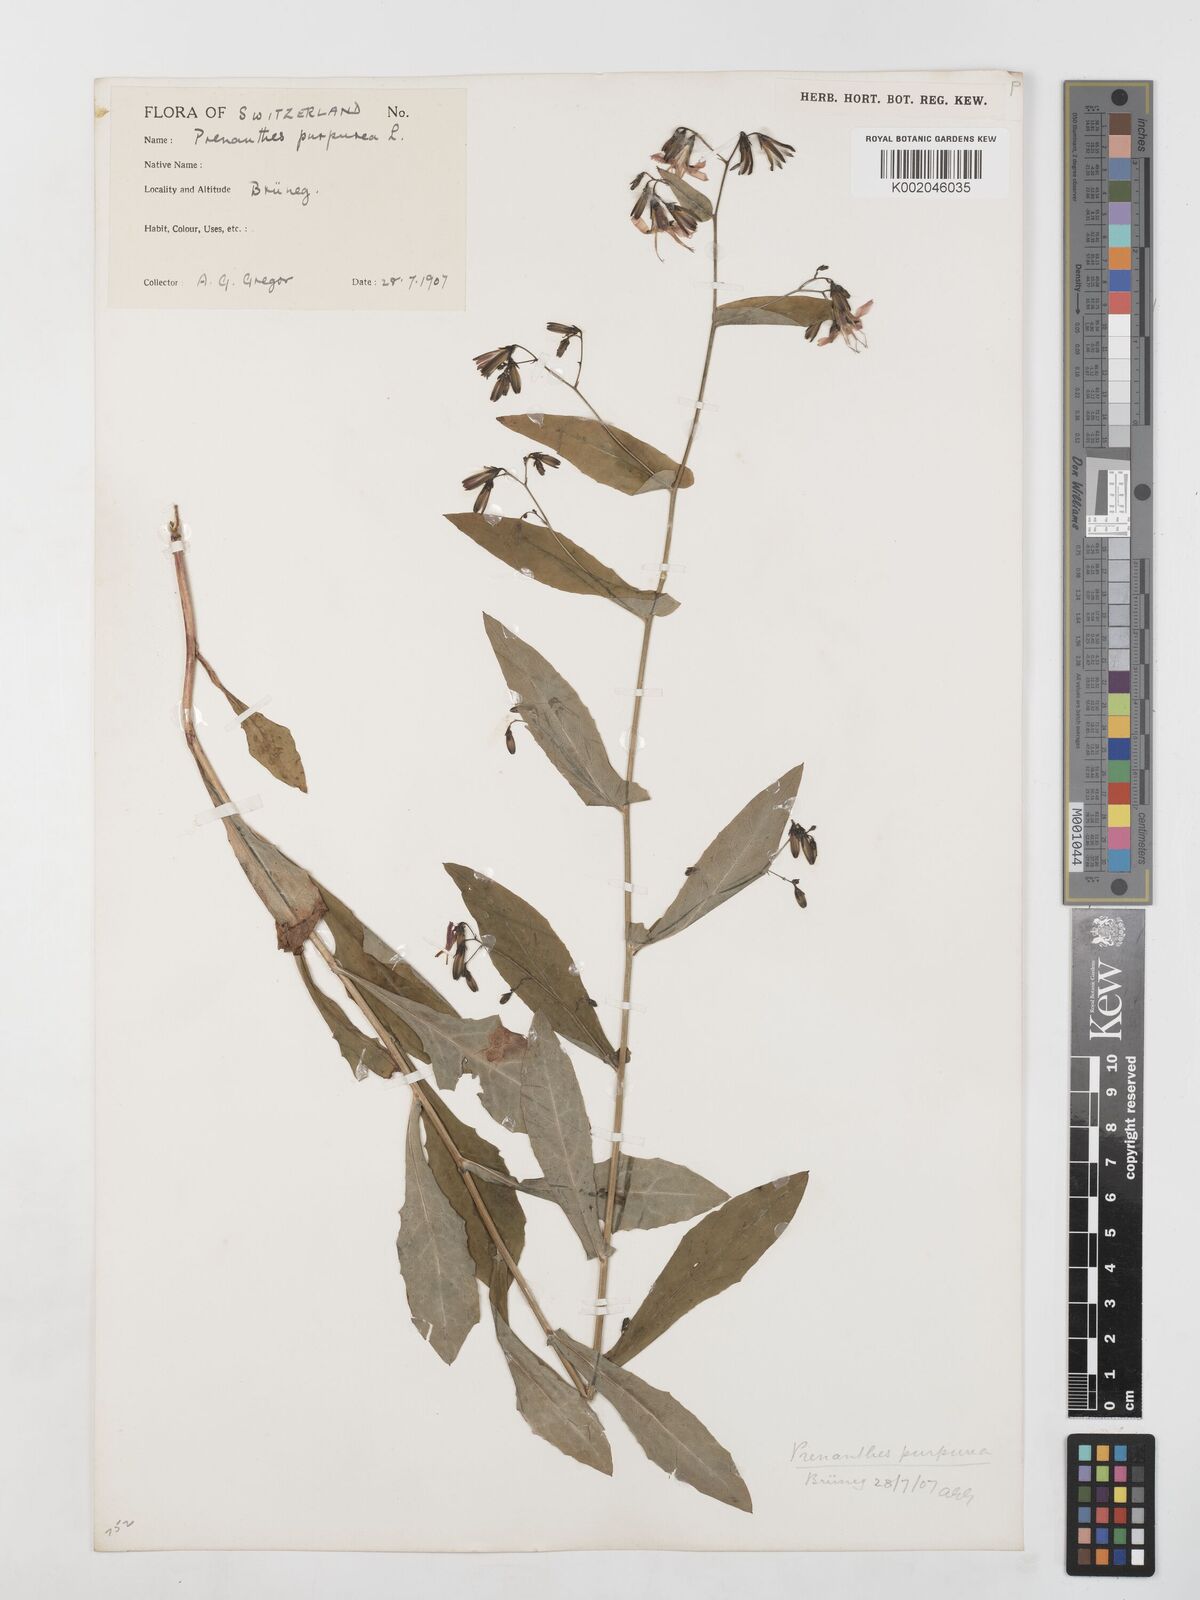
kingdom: Plantae
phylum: Tracheophyta
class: Magnoliopsida
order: Asterales
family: Asteraceae
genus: Prenanthes
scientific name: Prenanthes purpurea
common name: Purple lettuce
